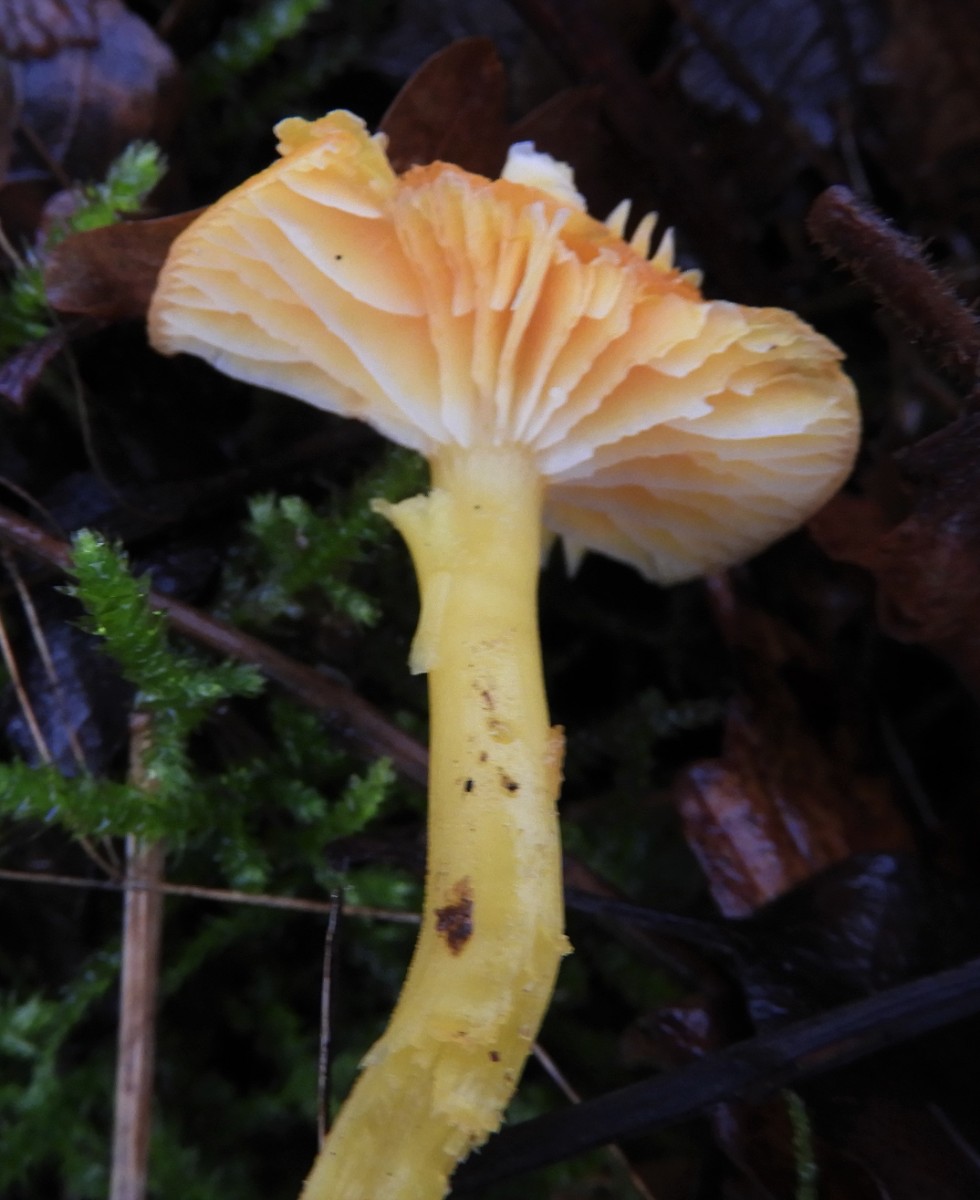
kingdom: Fungi
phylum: Basidiomycota
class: Agaricomycetes
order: Agaricales
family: Hygrophoraceae
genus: Hygrocybe
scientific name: Hygrocybe
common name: vokshat
